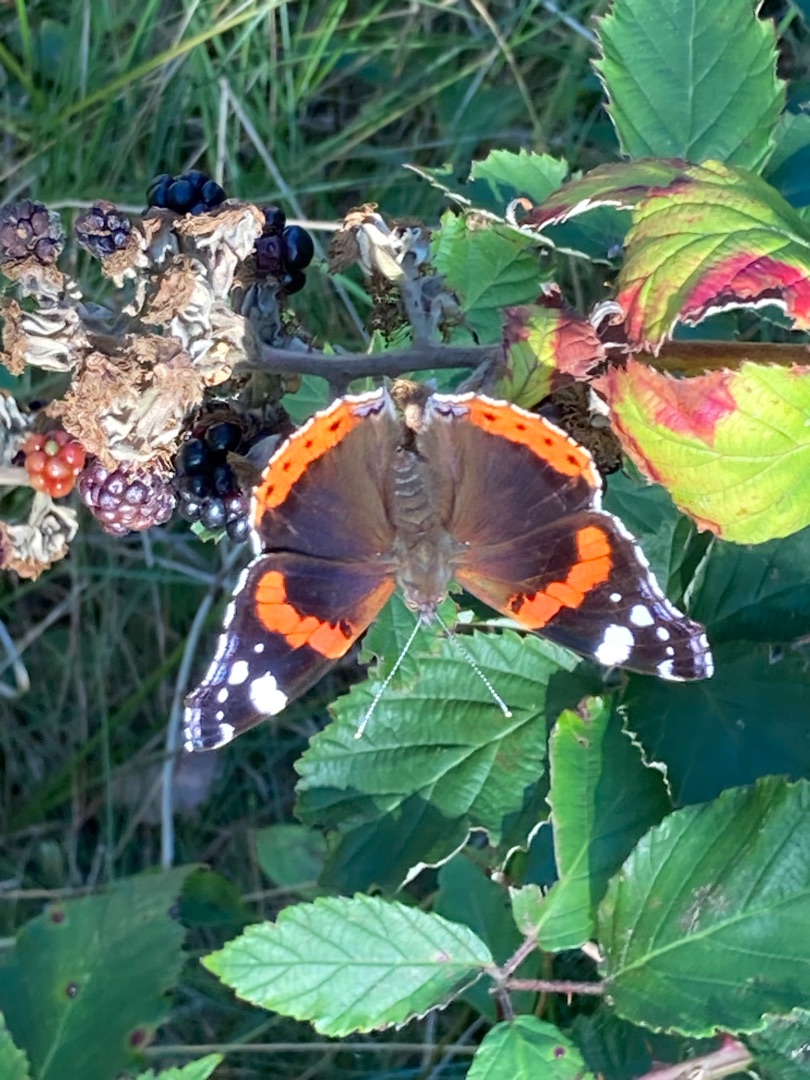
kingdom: Animalia
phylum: Arthropoda
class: Insecta
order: Lepidoptera
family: Nymphalidae
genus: Vanessa
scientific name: Vanessa atalanta
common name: Admiral
